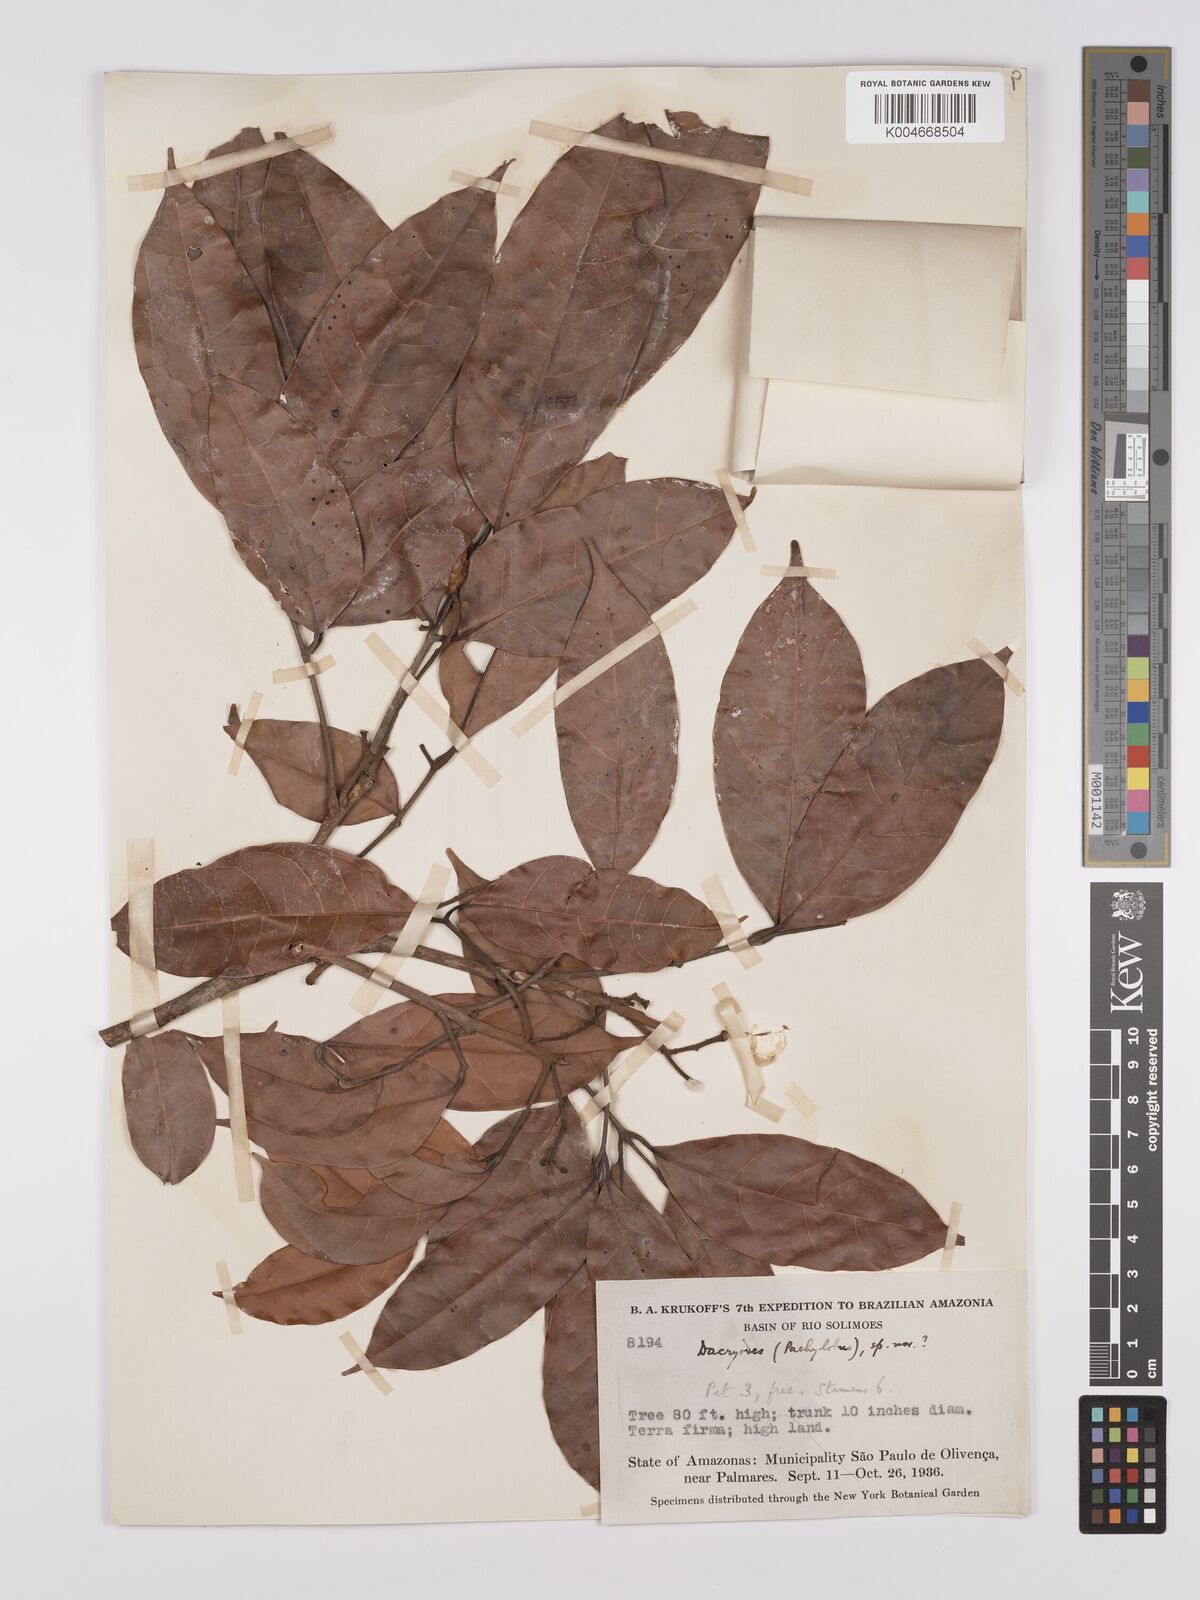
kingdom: Plantae
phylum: Tracheophyta
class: Magnoliopsida
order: Sapindales
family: Burseraceae
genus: Dacryodes
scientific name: Dacryodes
